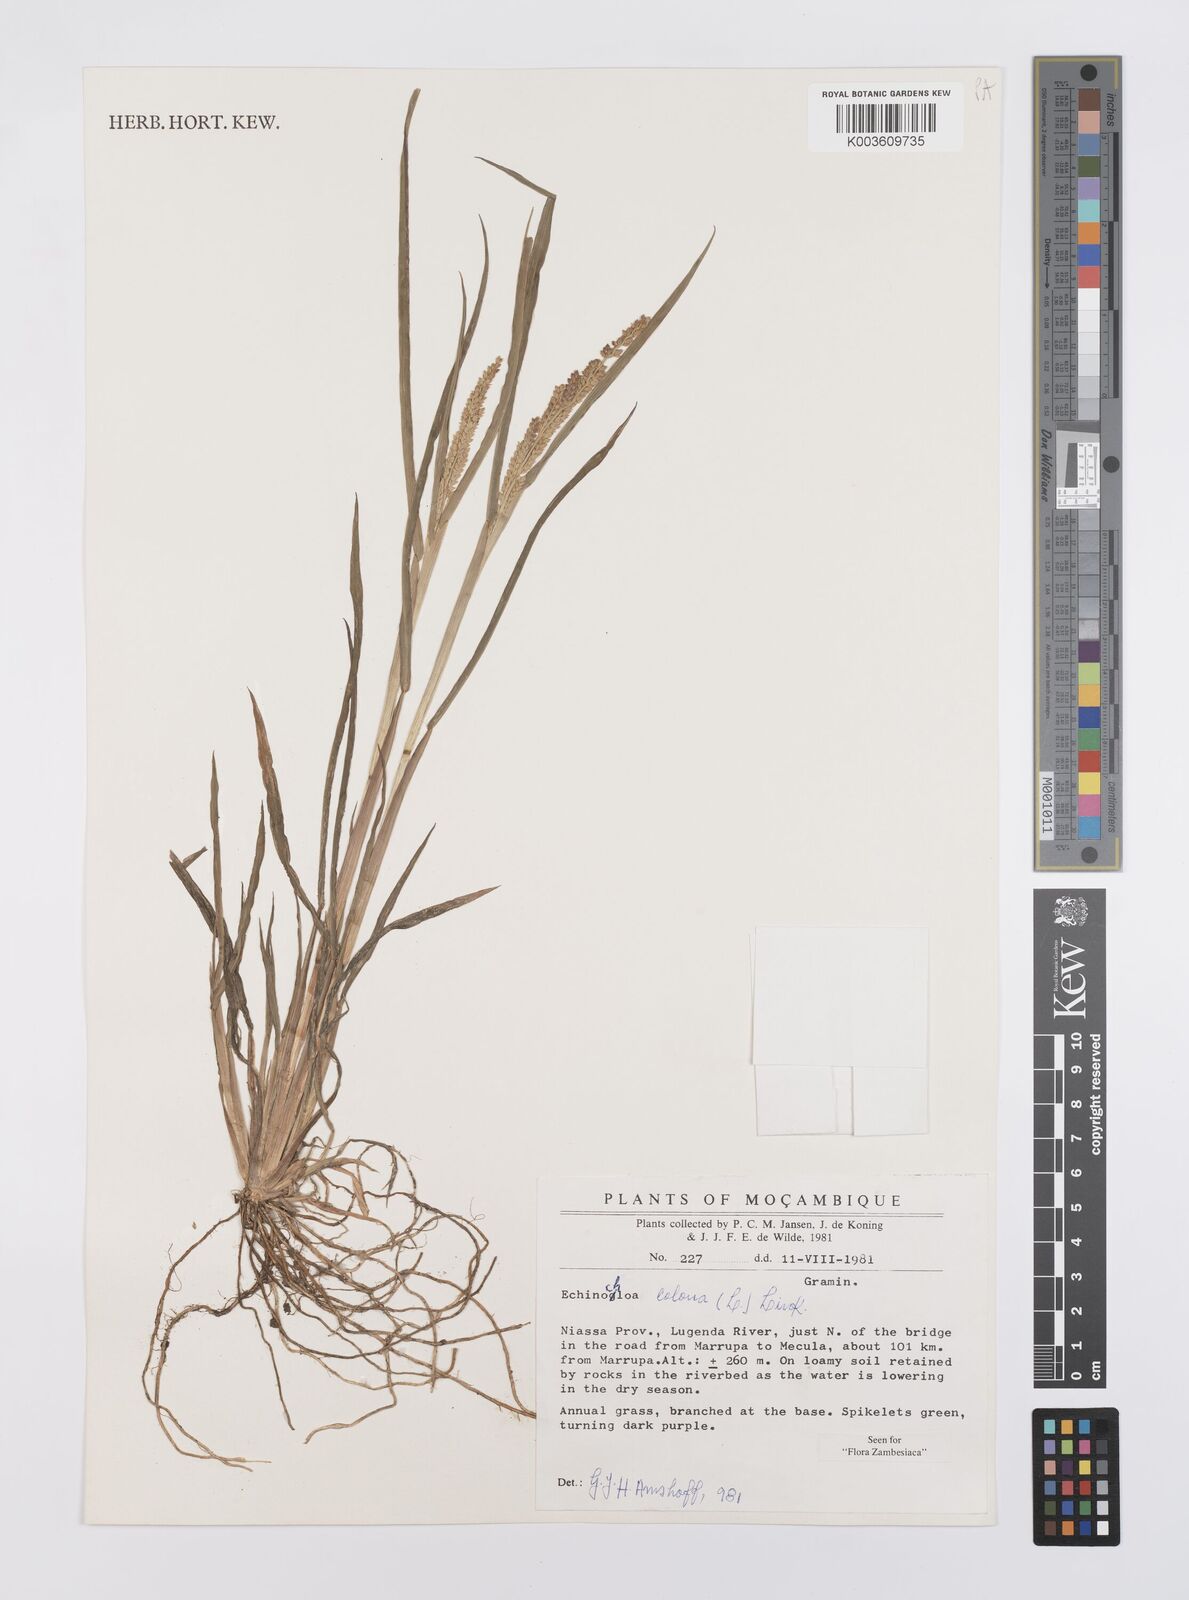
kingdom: Plantae
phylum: Tracheophyta
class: Liliopsida
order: Poales
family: Poaceae
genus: Echinochloa
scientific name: Echinochloa colonum
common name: Jungle rice
